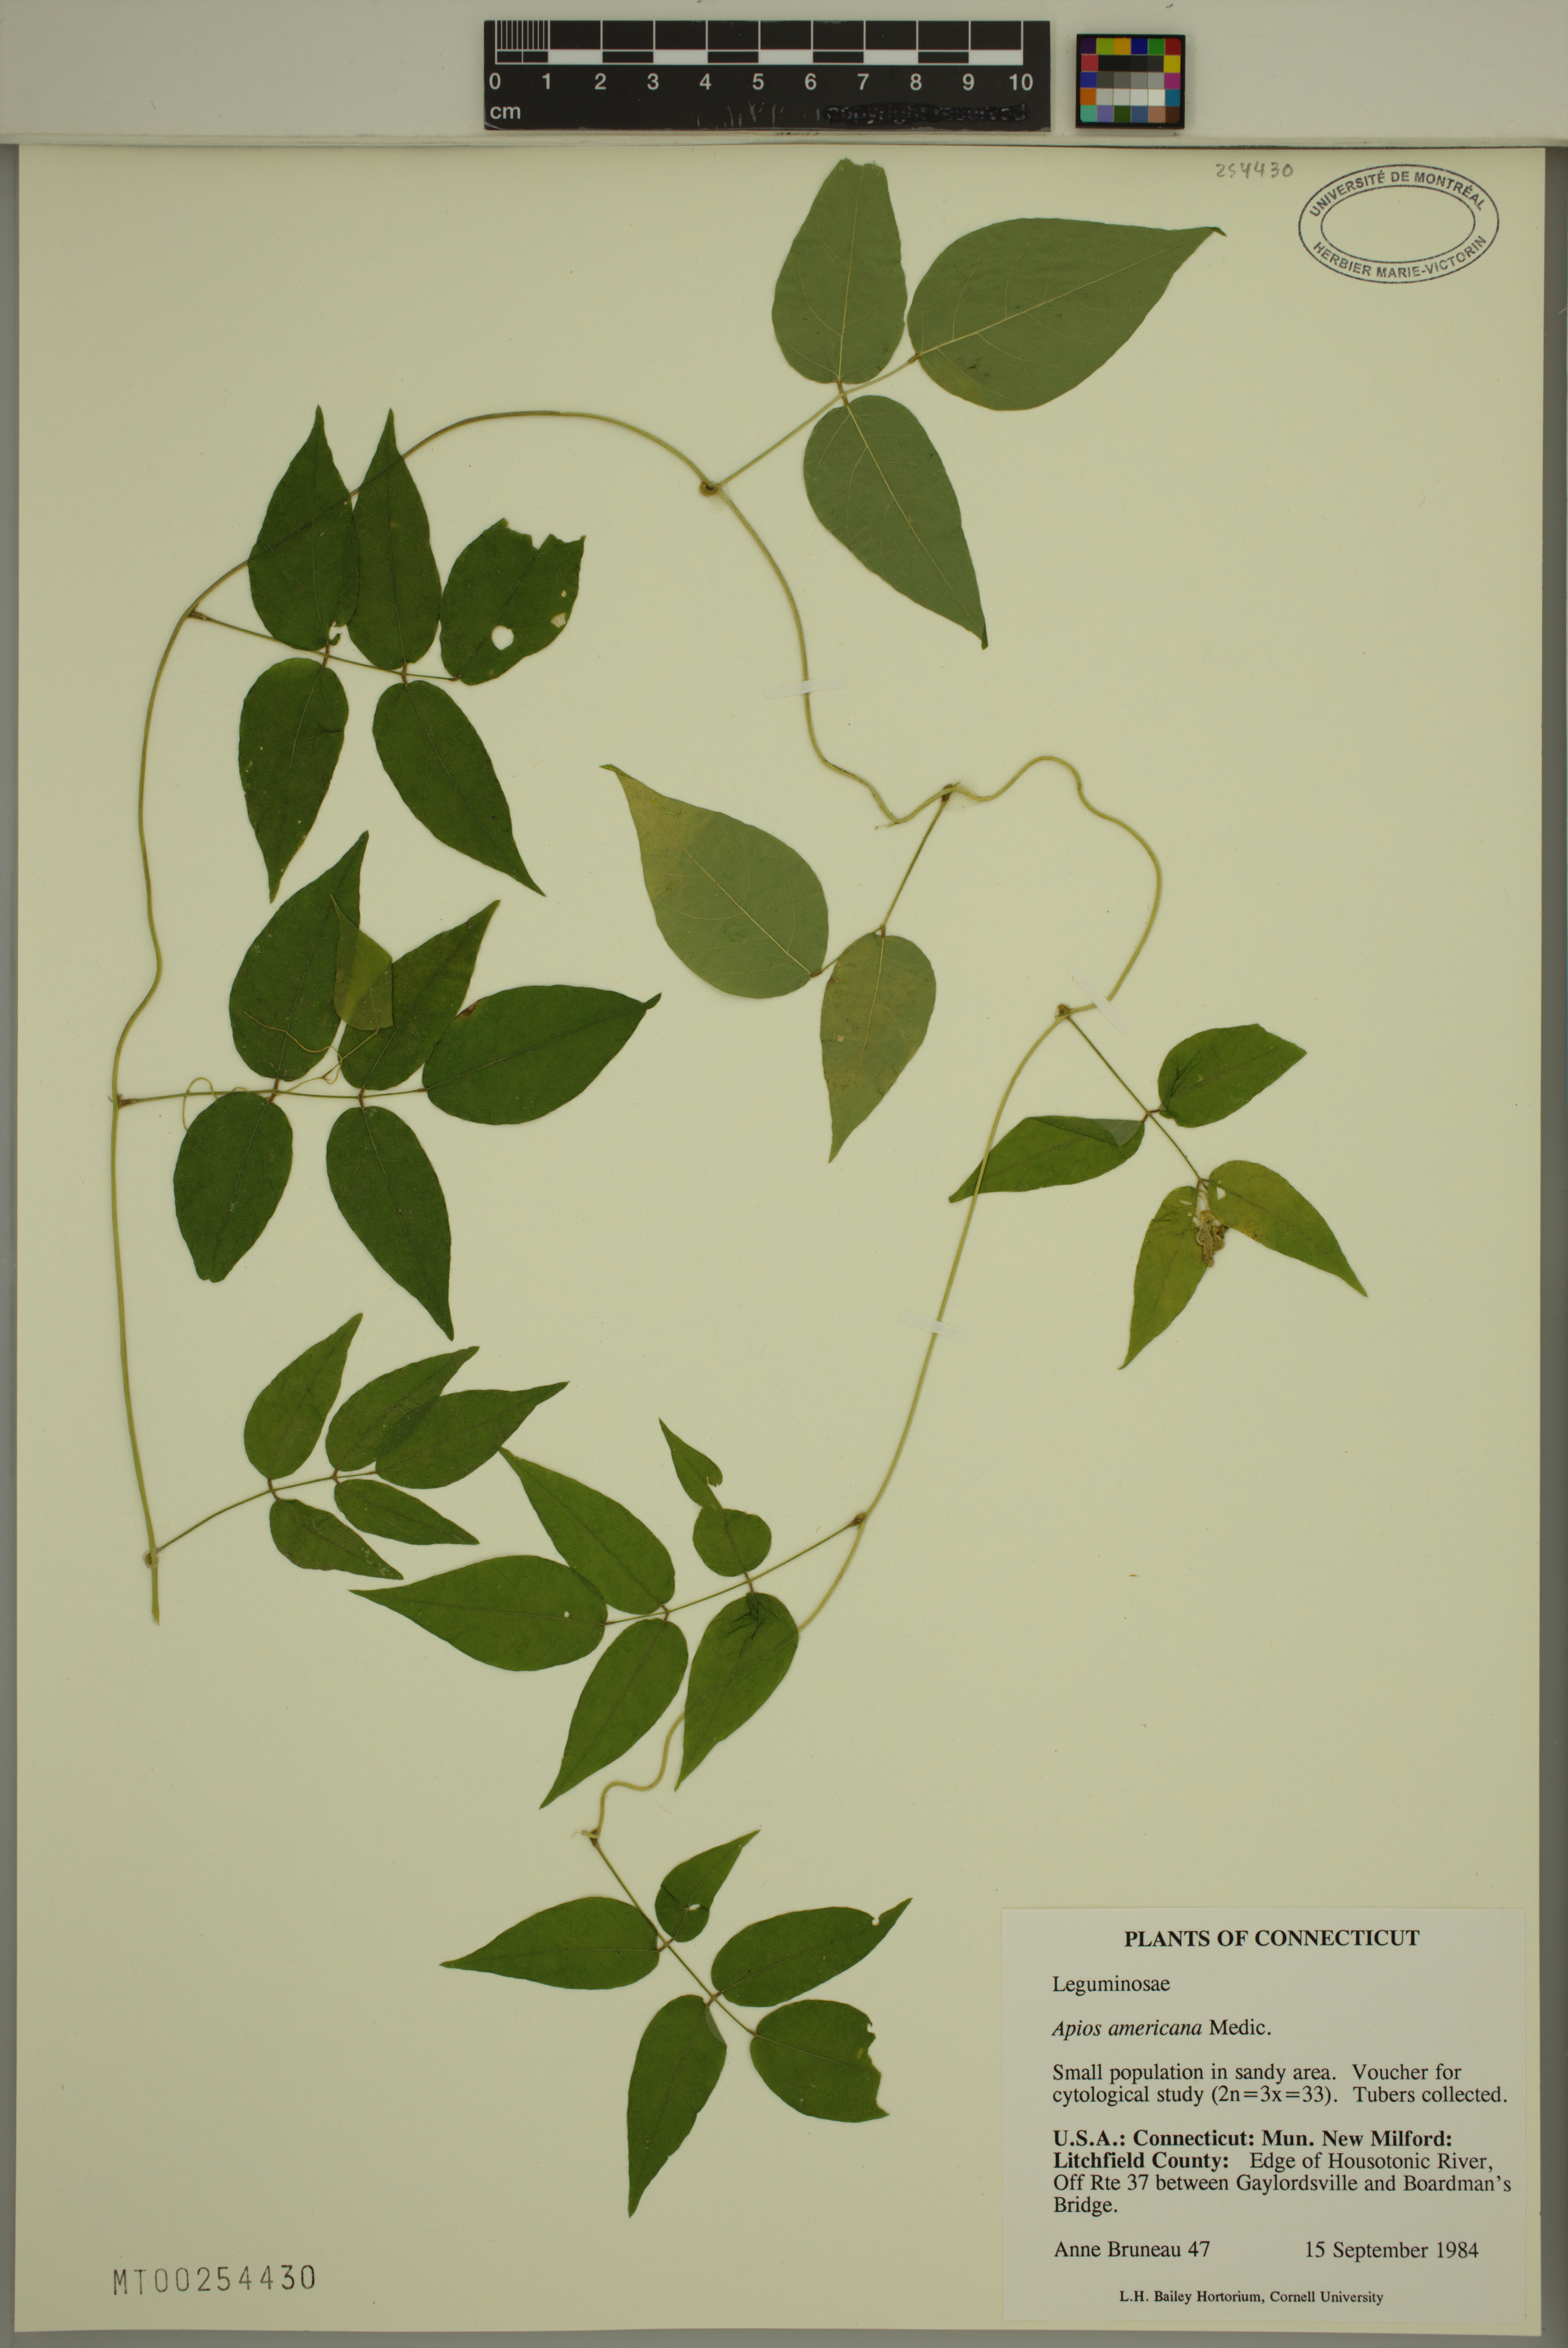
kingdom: Plantae
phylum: Tracheophyta
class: Magnoliopsida
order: Fabales
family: Fabaceae
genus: Apios
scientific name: Apios americana
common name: American potato-bean
